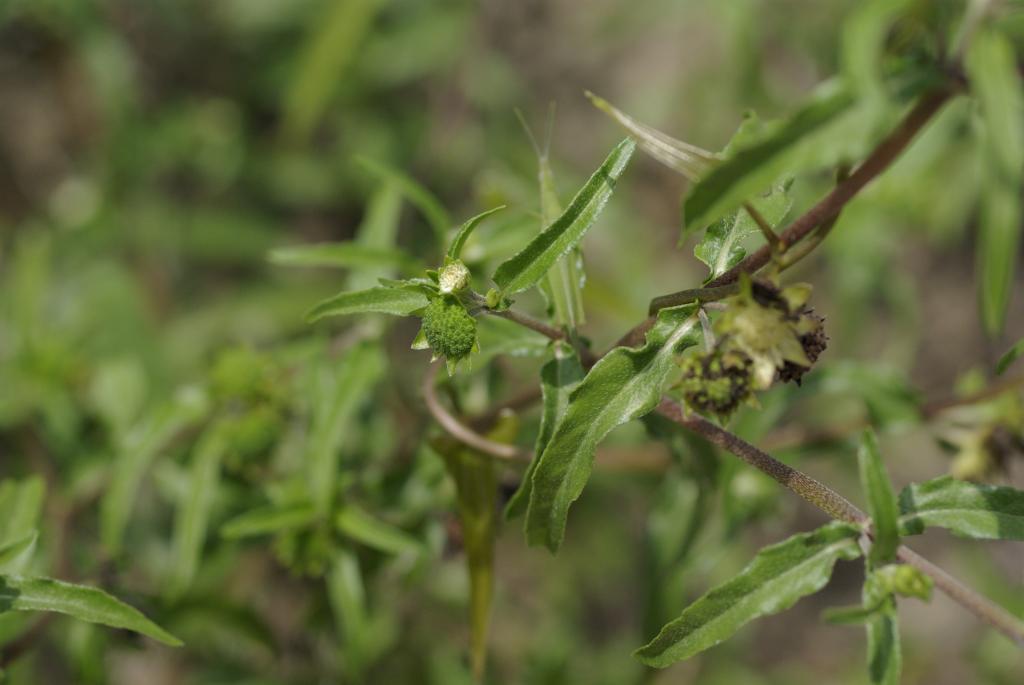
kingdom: Plantae
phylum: Tracheophyta
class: Magnoliopsida
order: Asterales
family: Asteraceae
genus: Eclipta
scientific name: Eclipta prostrata
